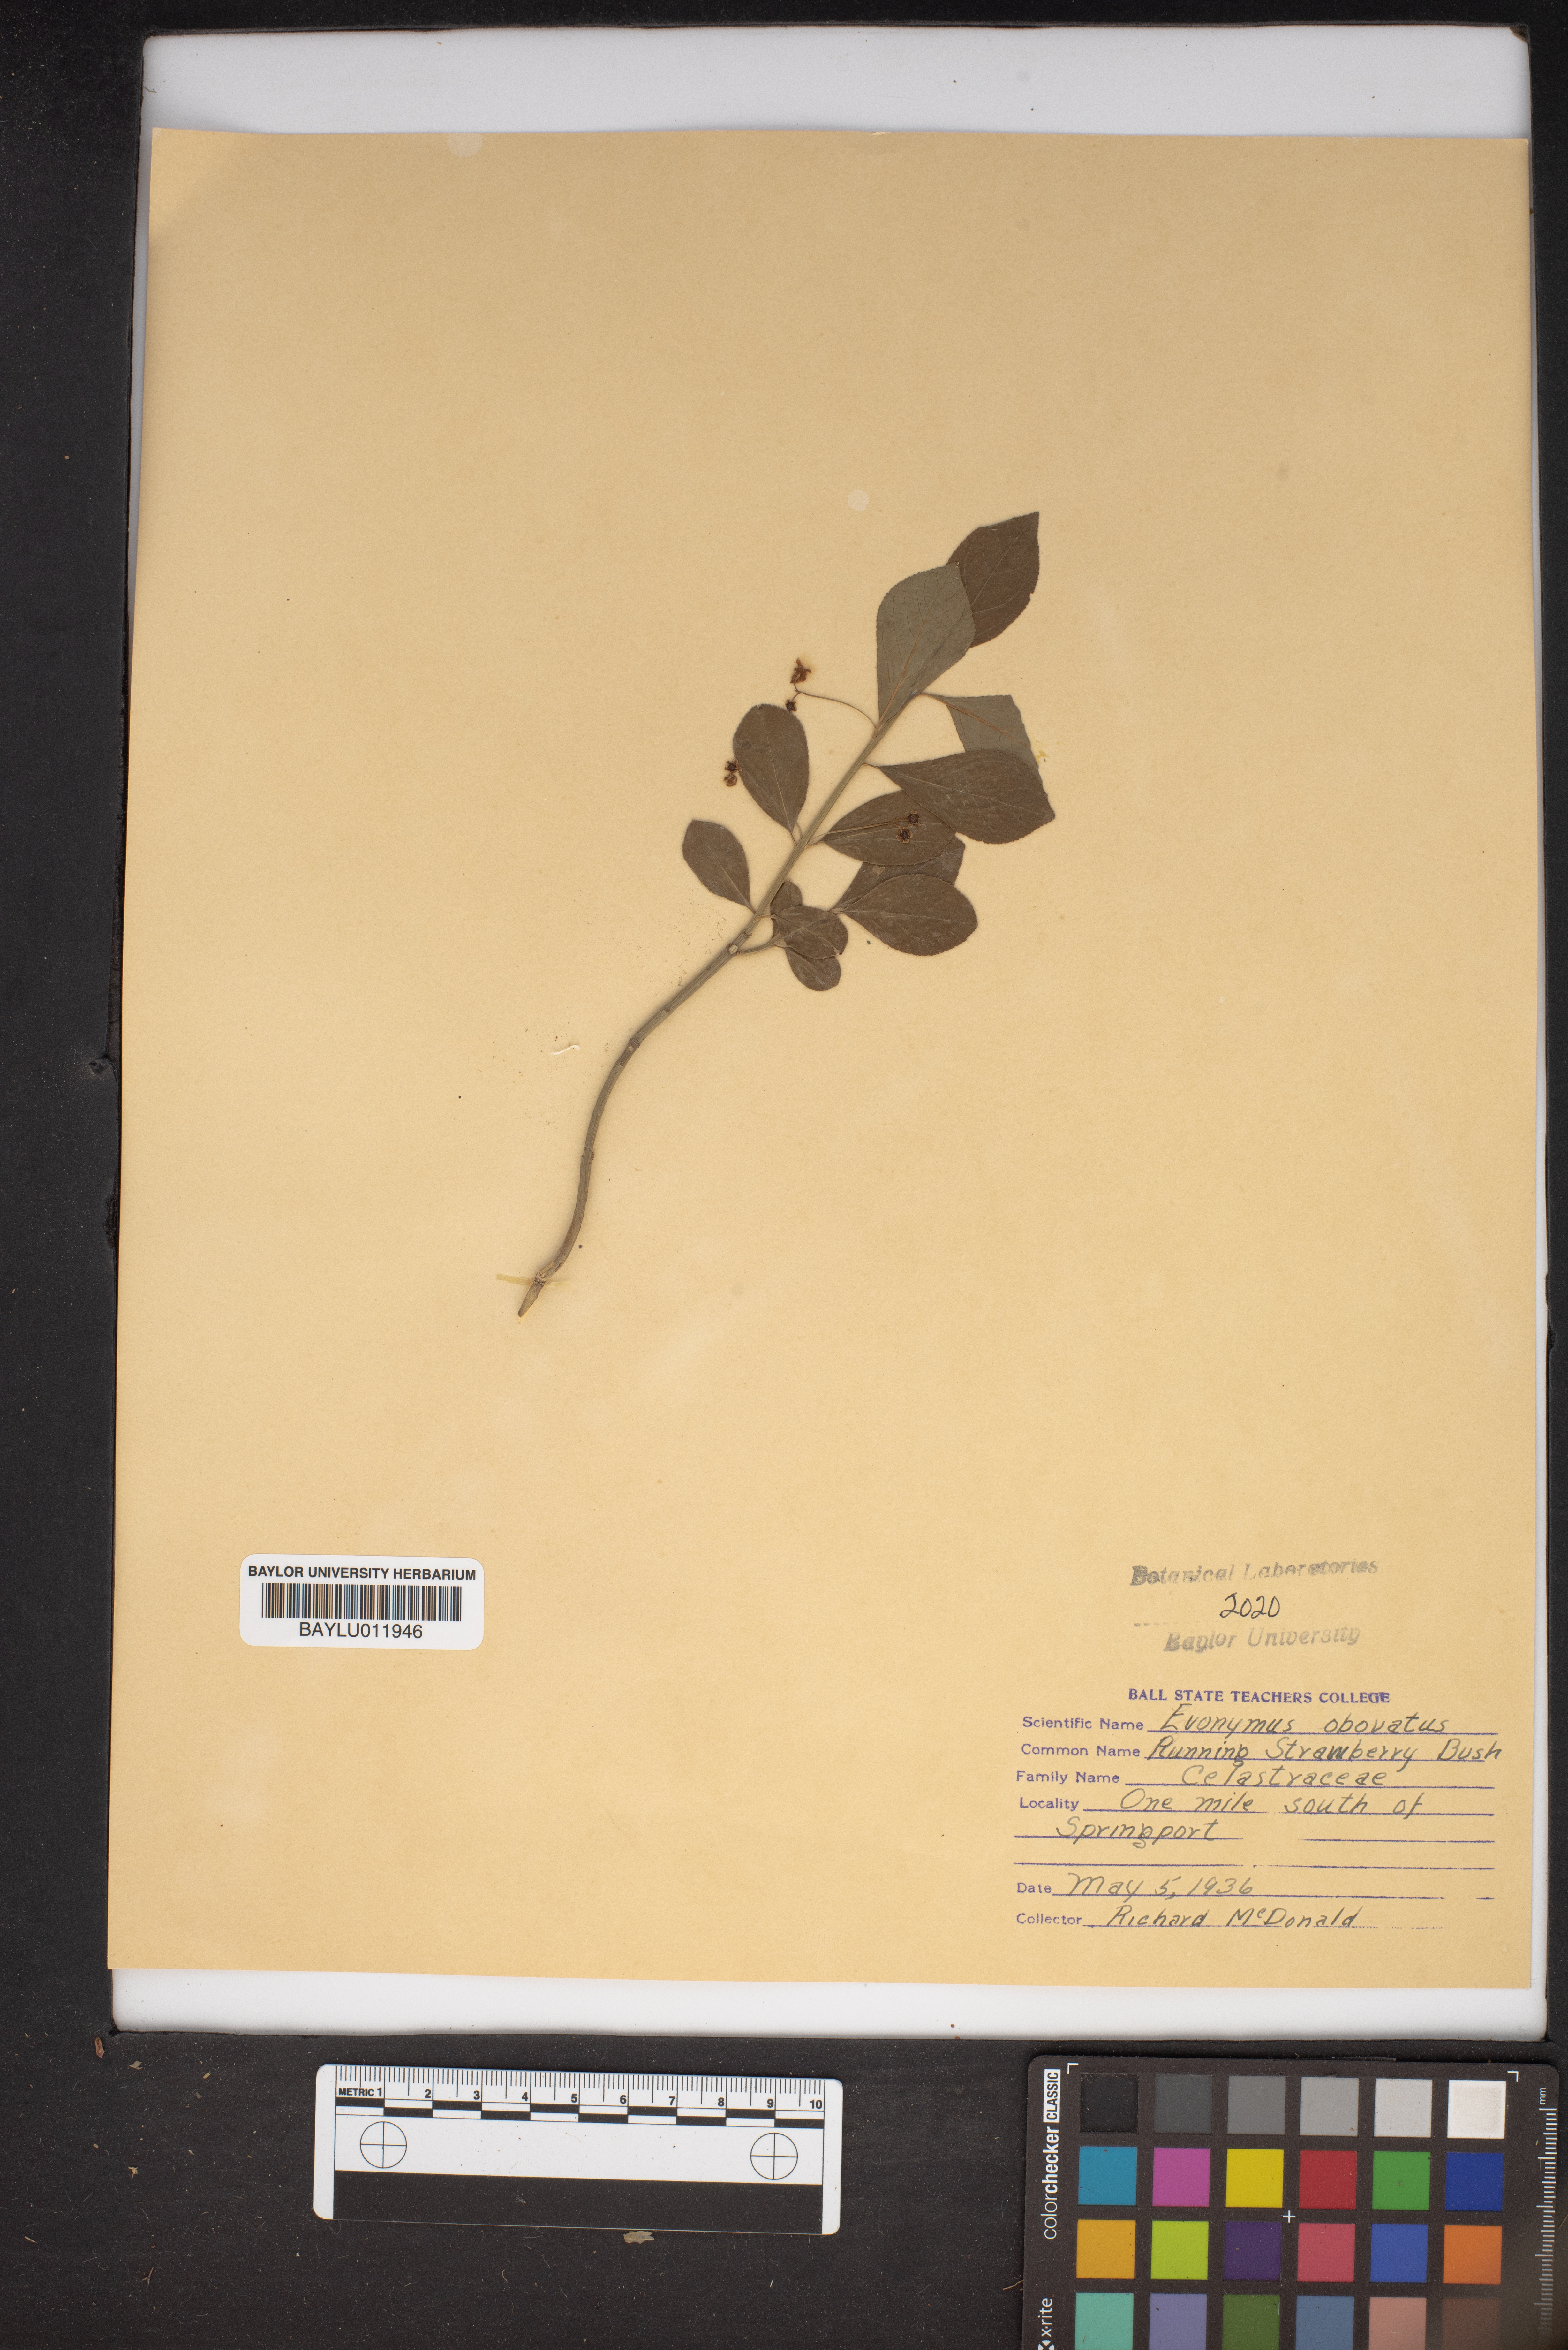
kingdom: Plantae
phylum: Tracheophyta
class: Magnoliopsida
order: Celastrales
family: Celastraceae
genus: Euonymus
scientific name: Euonymus obovatus
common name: Running strawberry-bush
